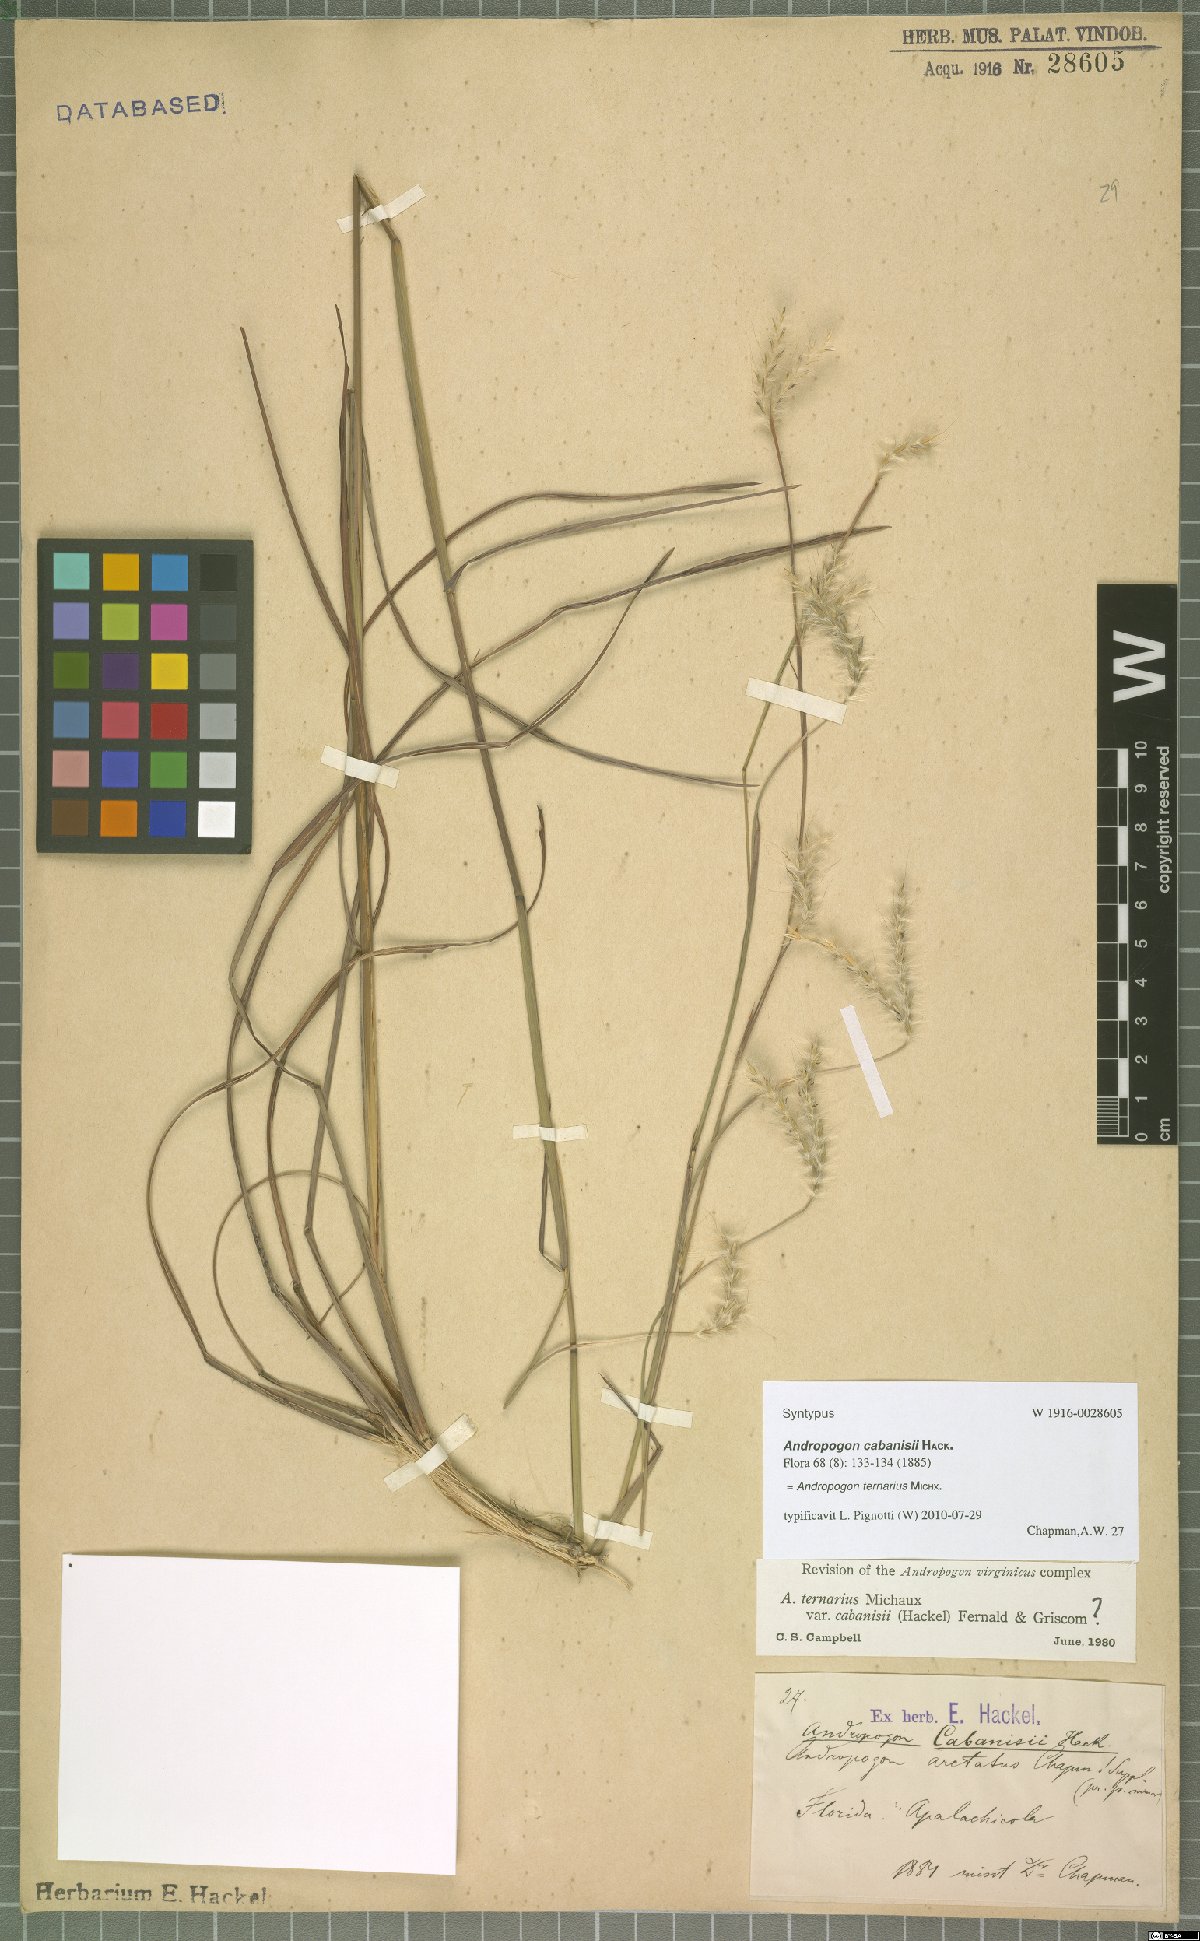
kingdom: Plantae
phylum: Tracheophyta
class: Liliopsida
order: Poales
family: Poaceae
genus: Andropogon
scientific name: Andropogon ternarius
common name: Split bluestem
